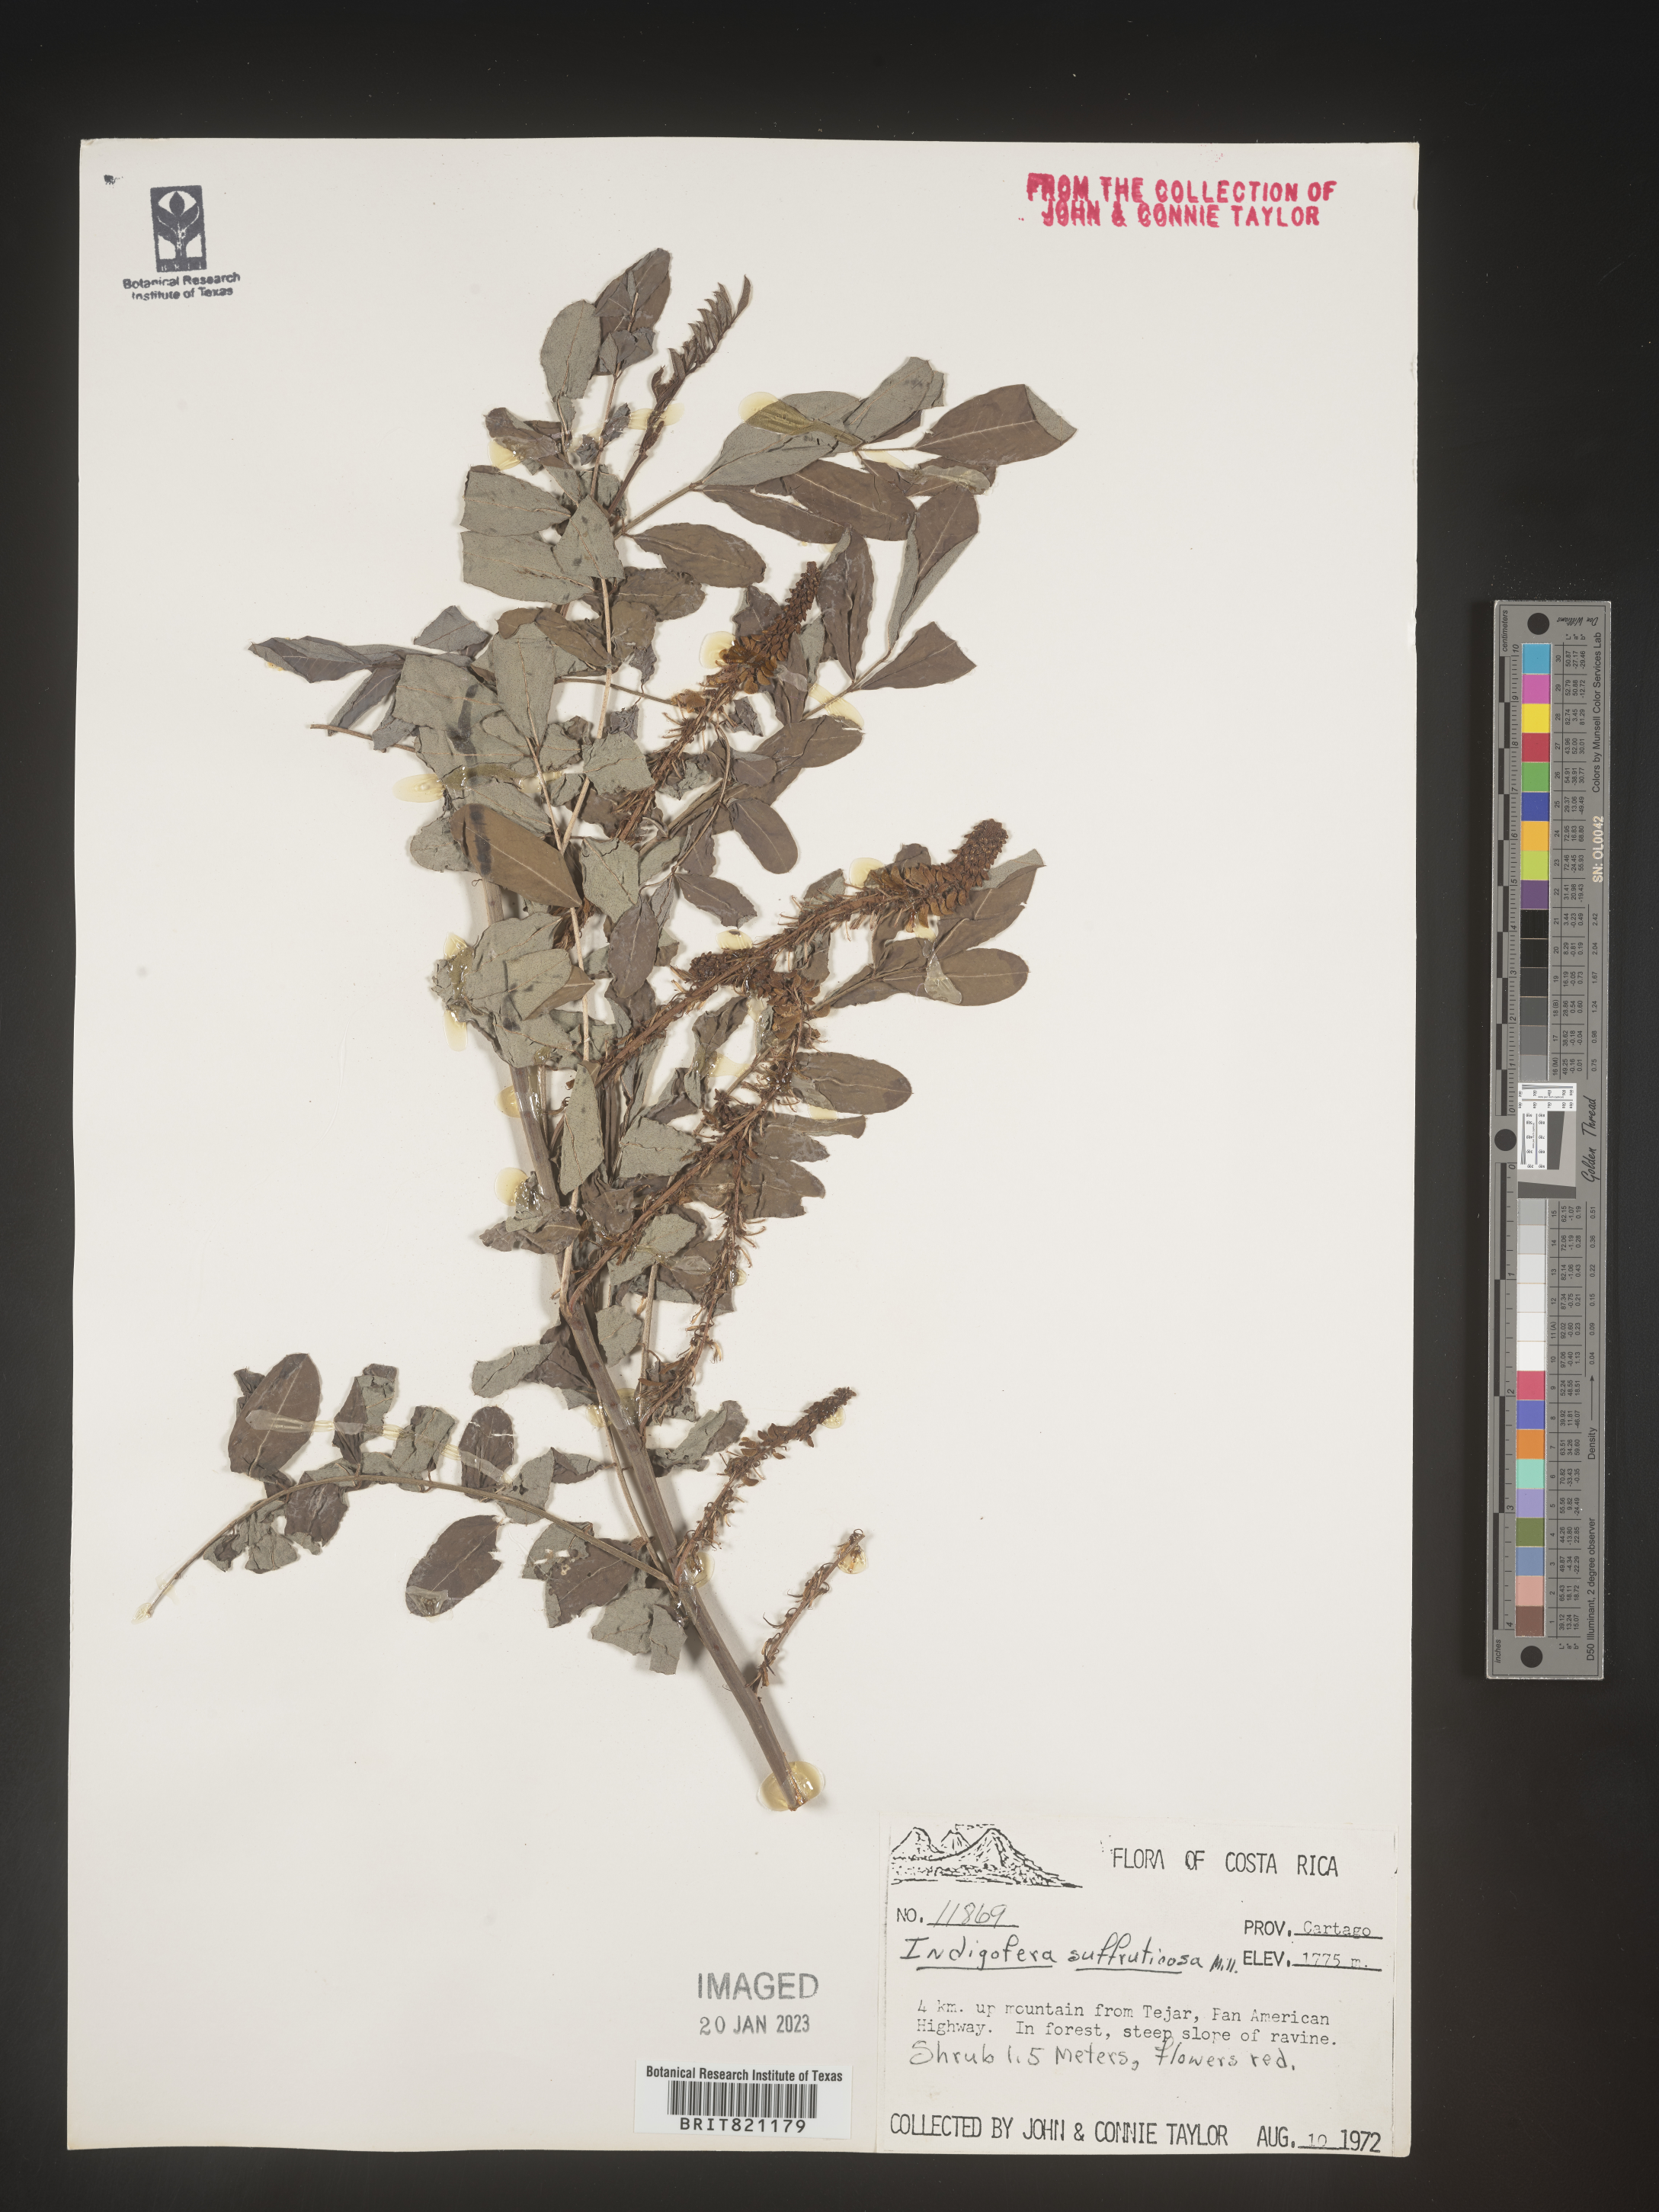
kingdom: Plantae
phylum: Tracheophyta
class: Magnoliopsida
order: Fabales
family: Fabaceae
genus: Indigofera
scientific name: Indigofera
